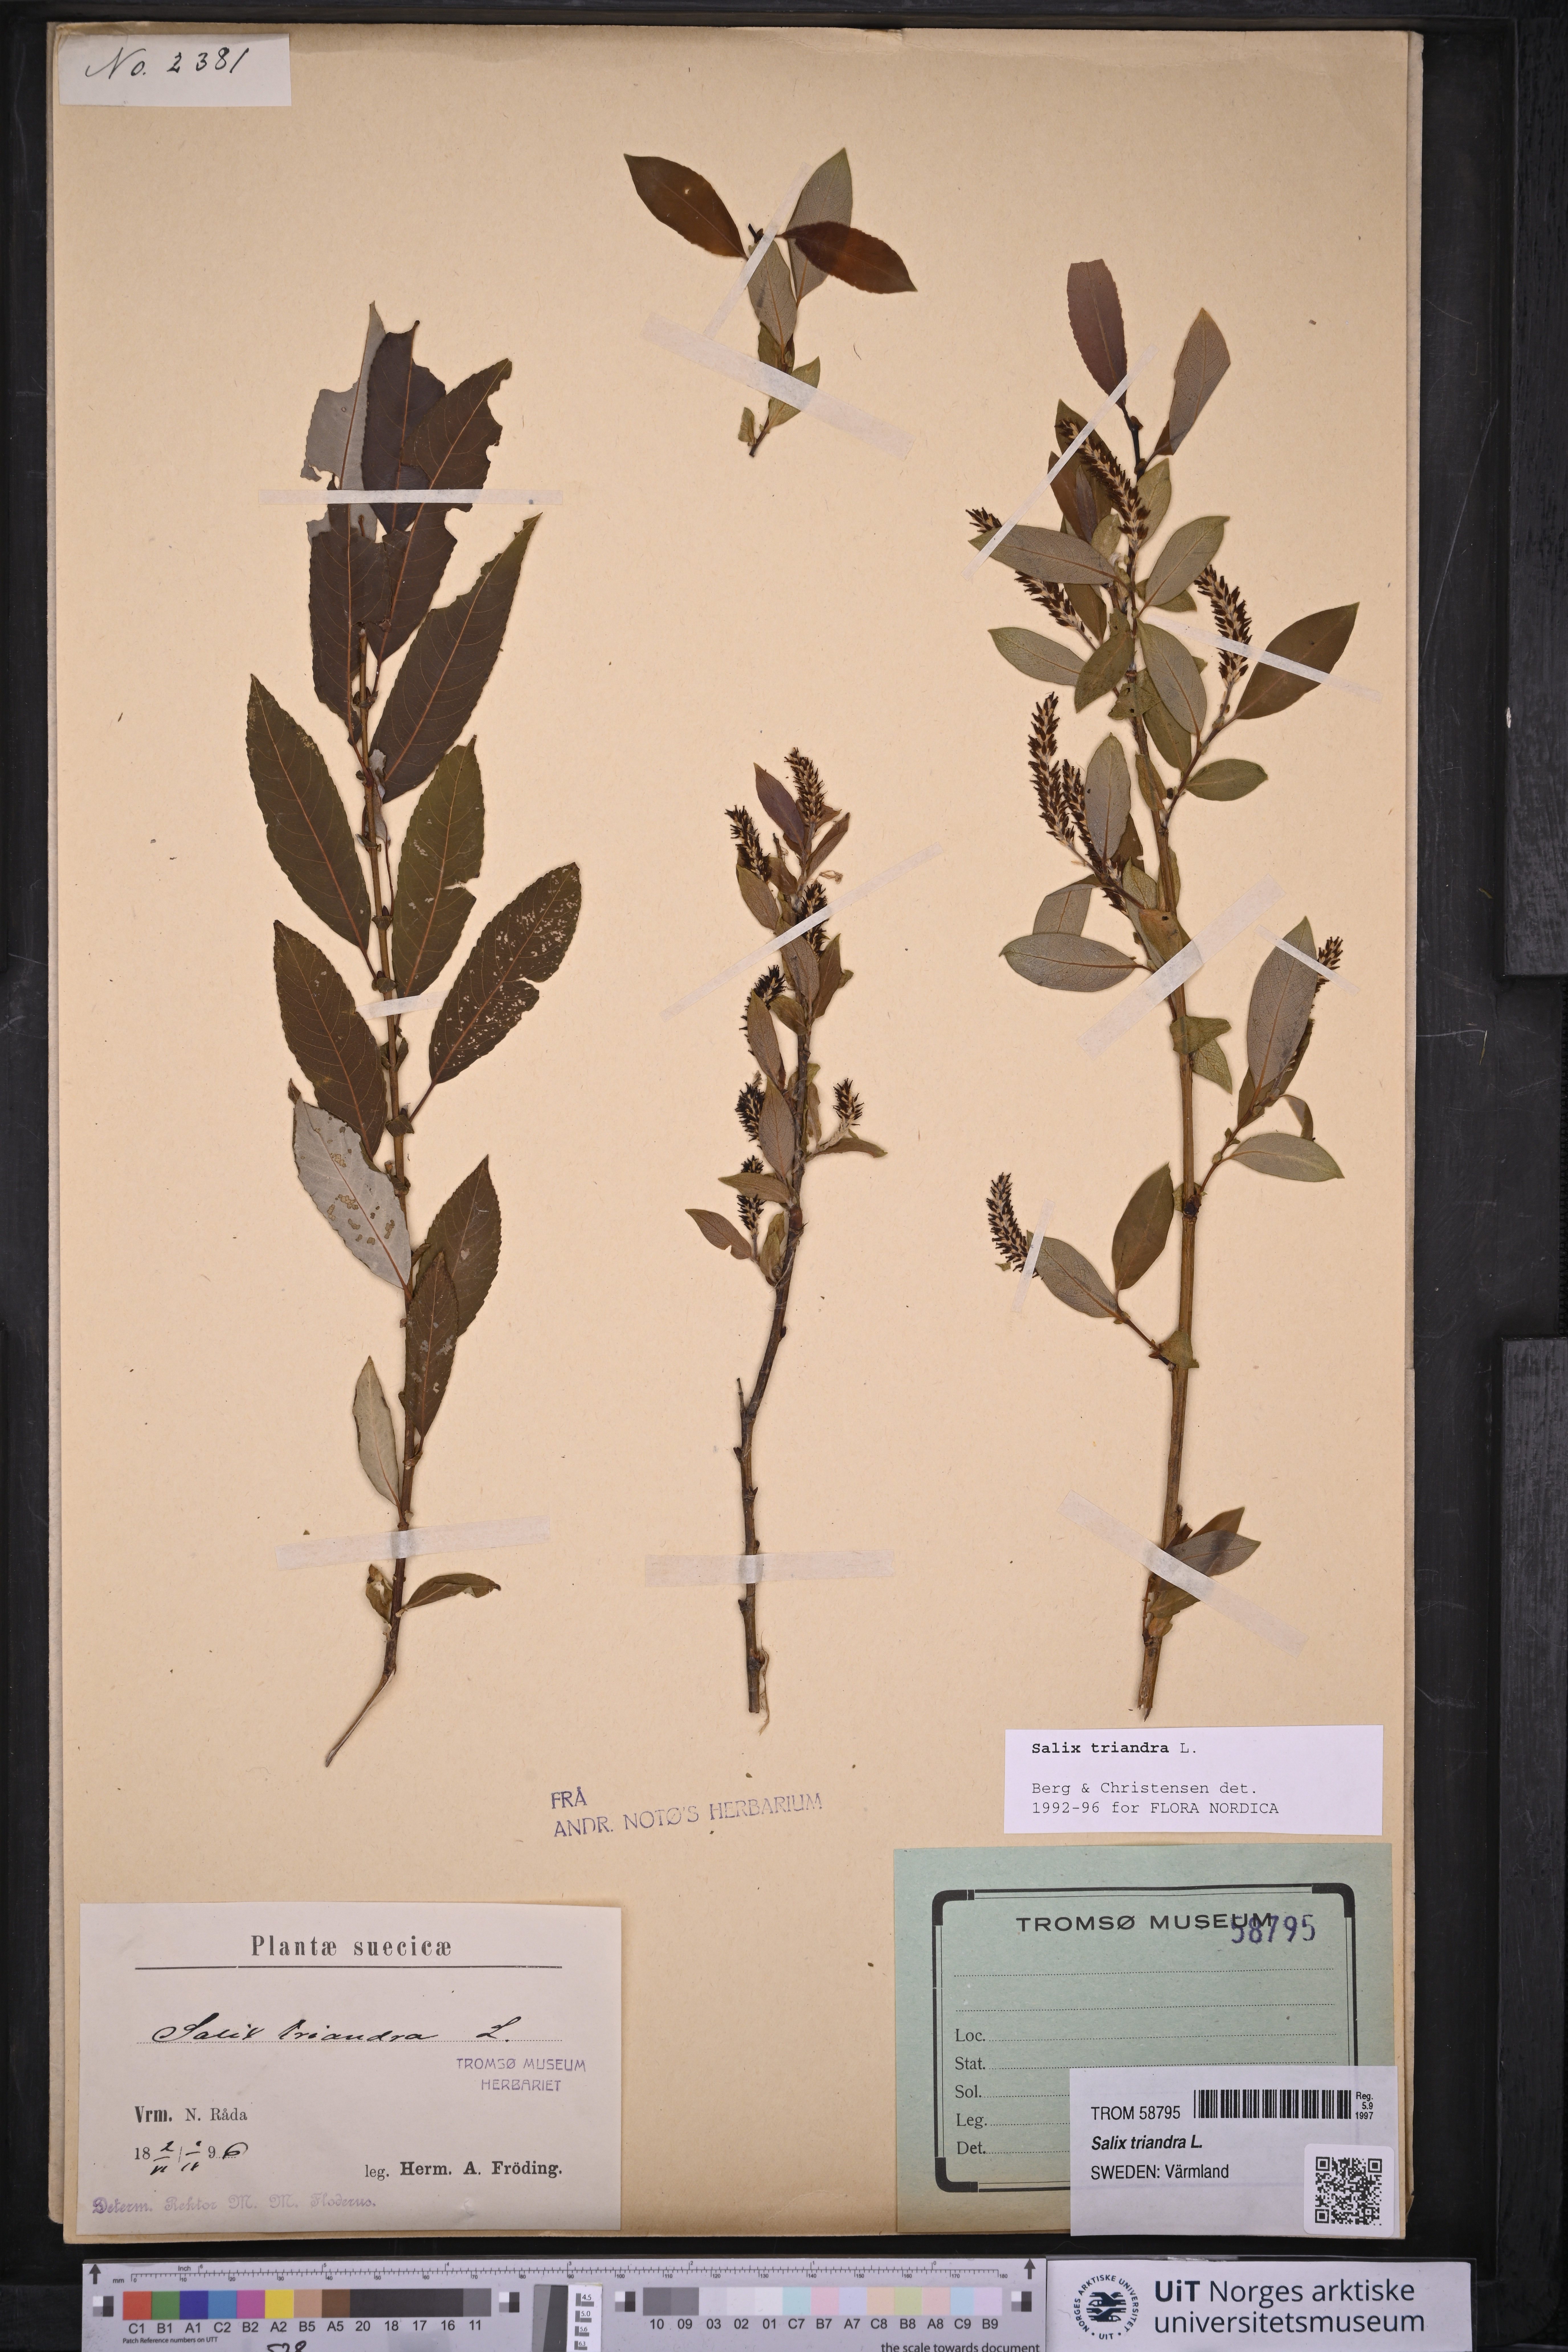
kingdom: Plantae
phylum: Tracheophyta
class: Magnoliopsida
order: Malpighiales
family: Salicaceae
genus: Salix
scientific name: Salix triandra
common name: Almond willow
